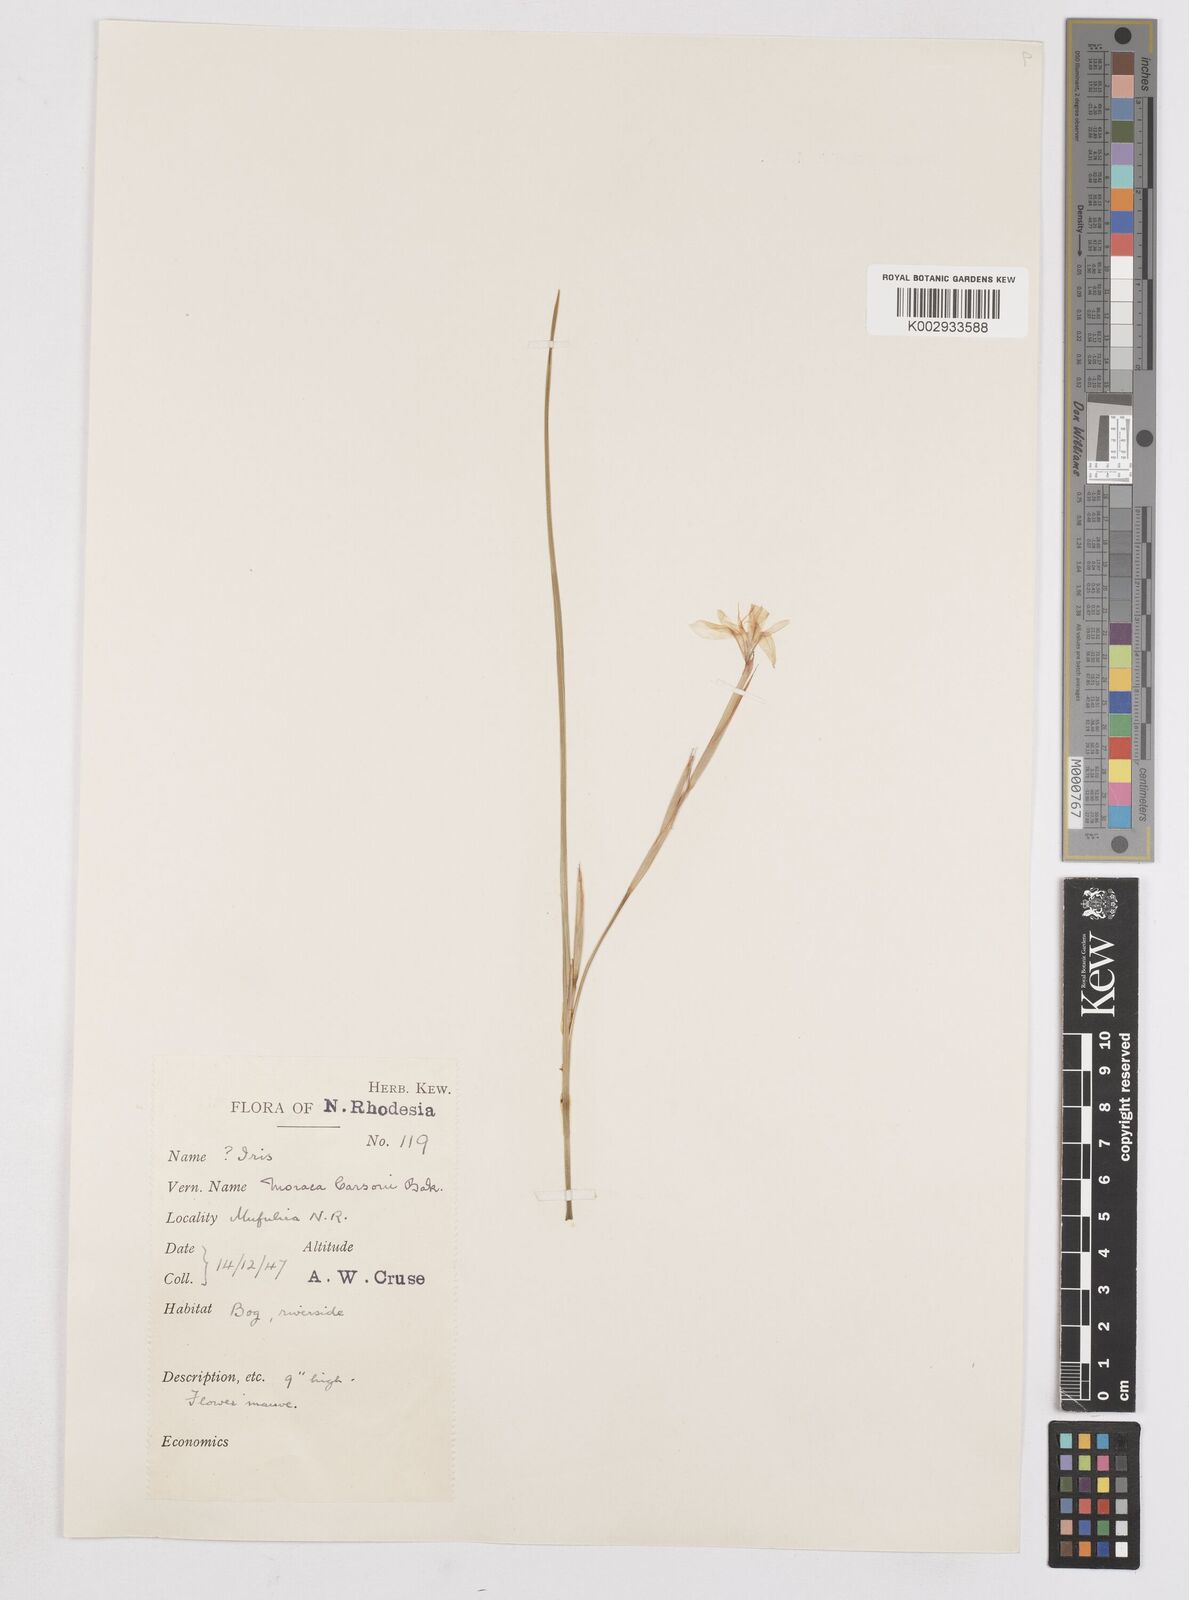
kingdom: Plantae
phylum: Tracheophyta
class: Liliopsida
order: Asparagales
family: Iridaceae
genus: Moraea
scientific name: Moraea carsonii
